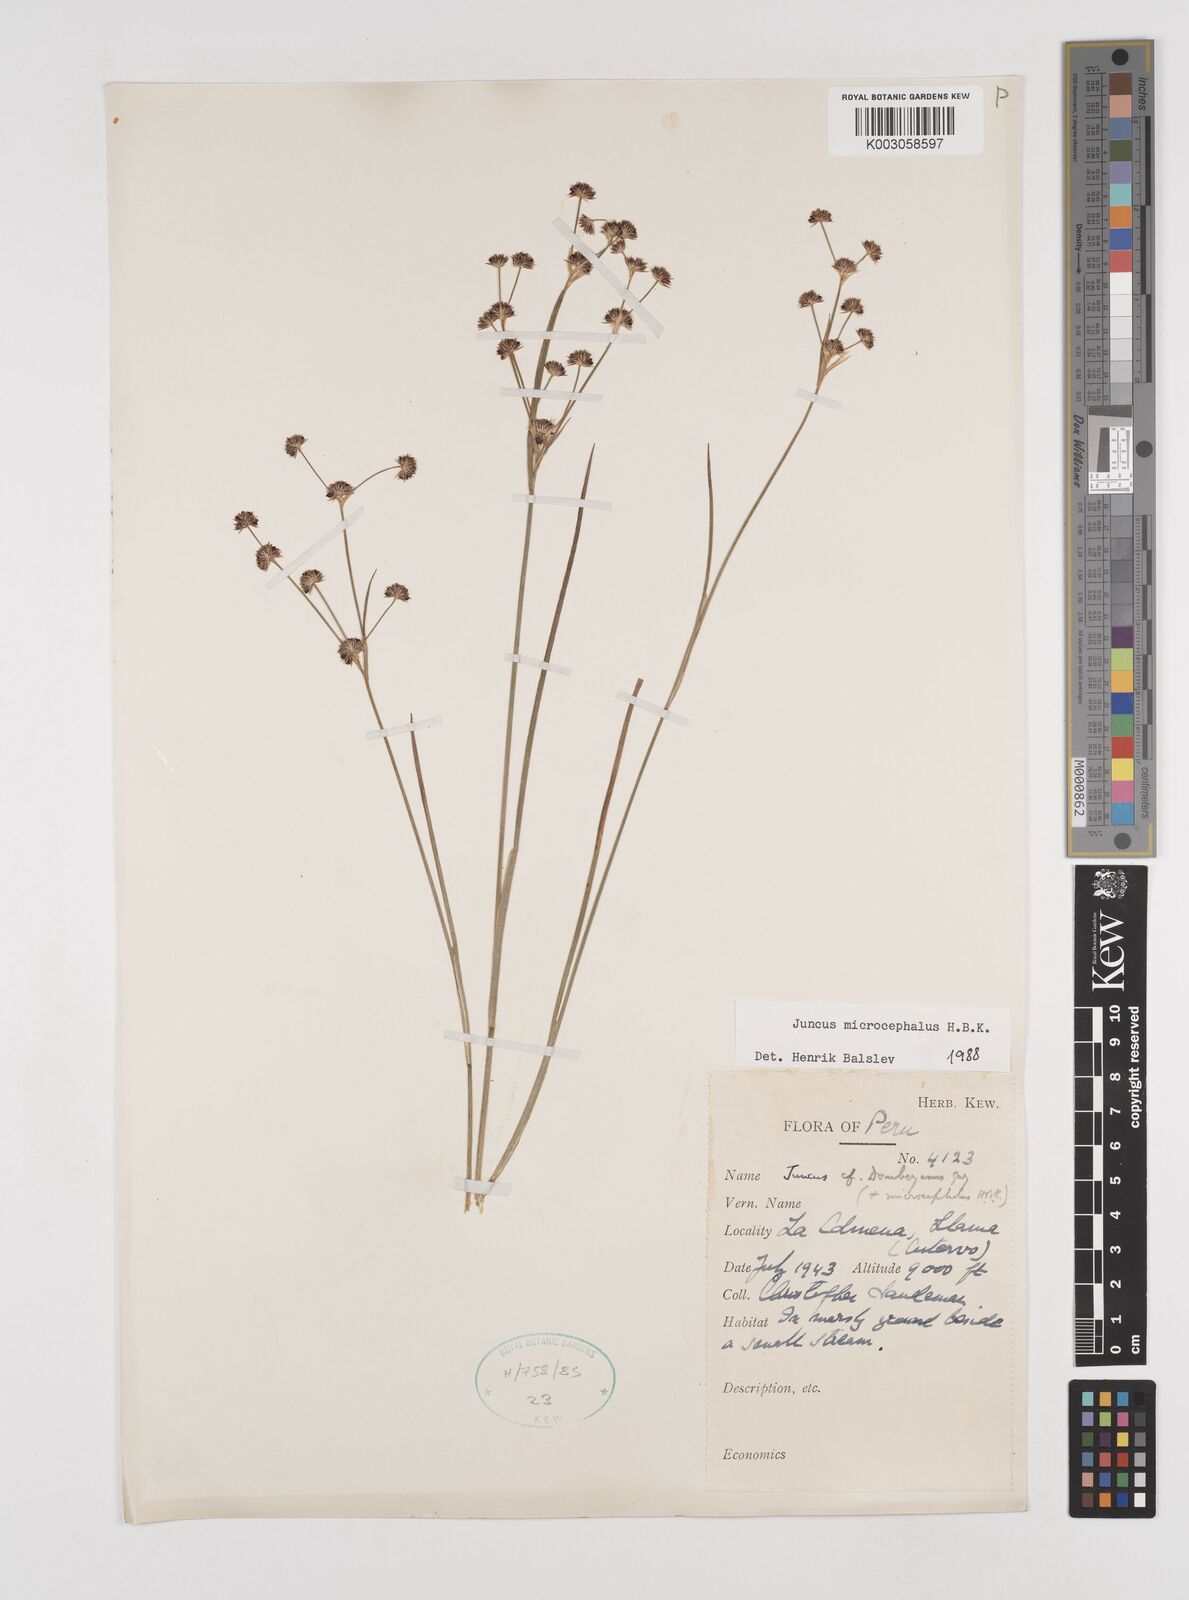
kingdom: Plantae
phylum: Tracheophyta
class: Liliopsida
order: Poales
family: Juncaceae
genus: Juncus
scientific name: Juncus
